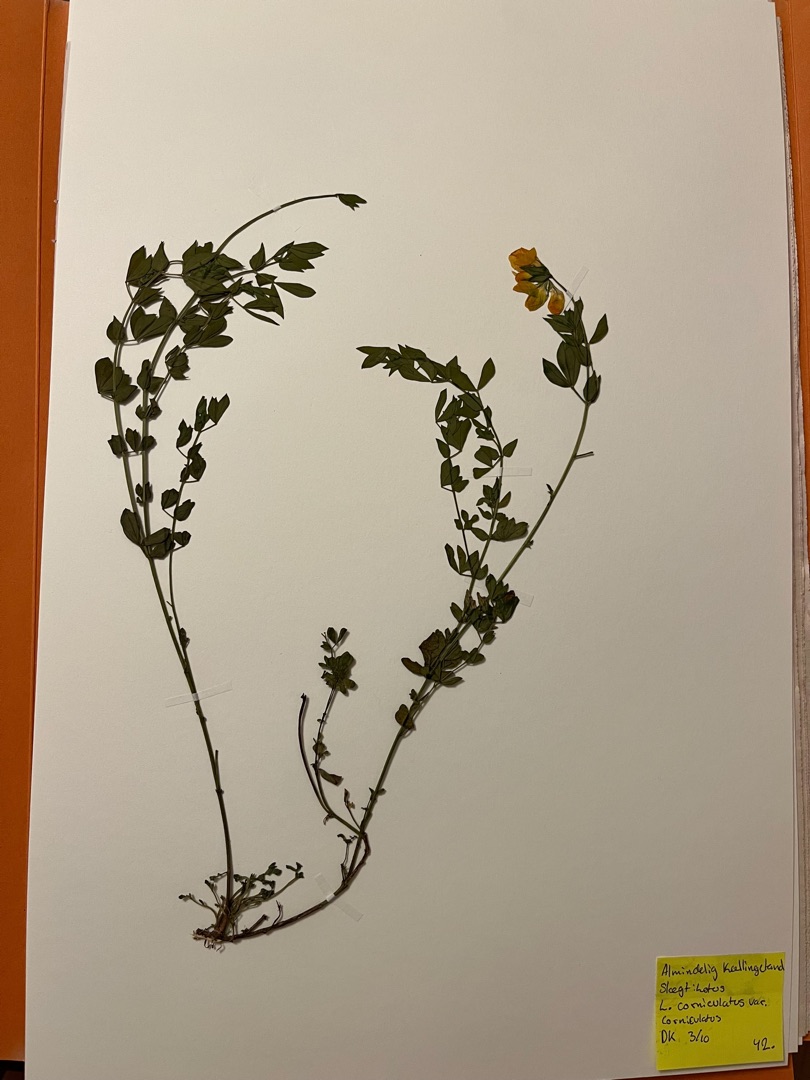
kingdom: Plantae
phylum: Tracheophyta
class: Magnoliopsida
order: Fabales
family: Fabaceae
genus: Lotus
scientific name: Lotus corniculatus
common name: Almindelig kællingetand
